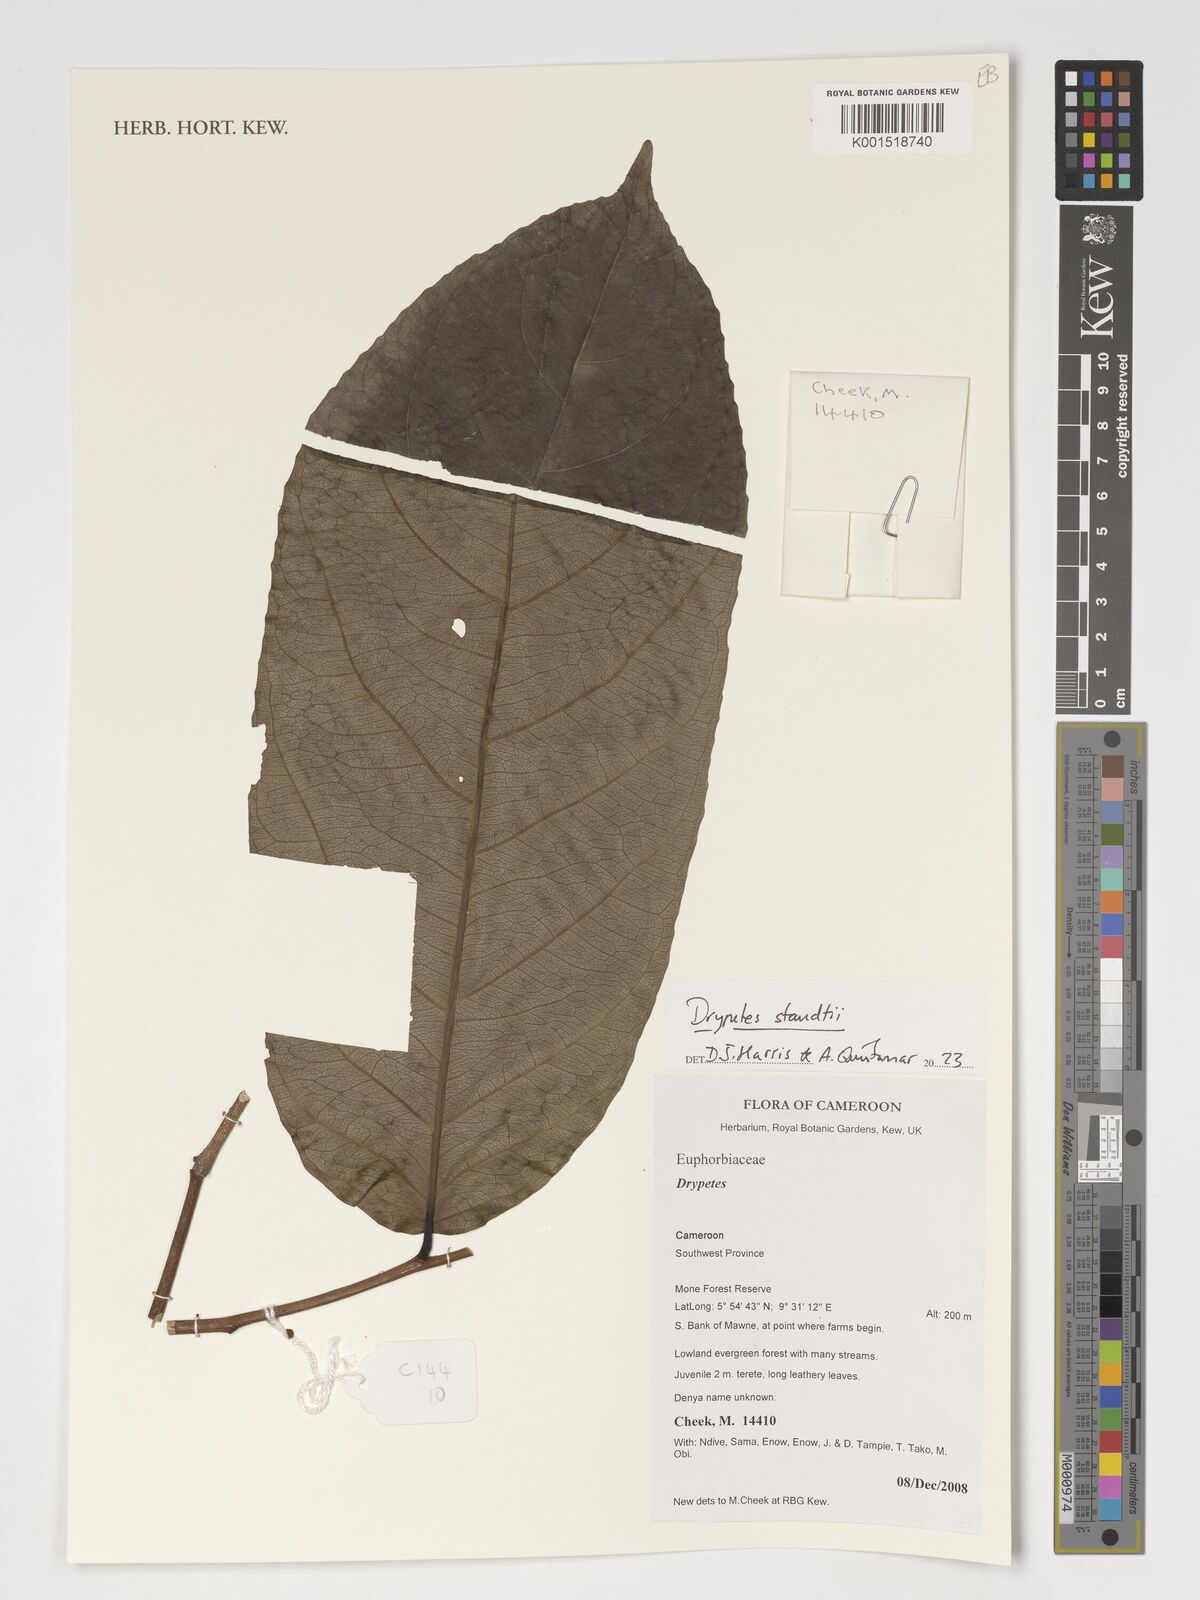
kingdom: Plantae
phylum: Tracheophyta
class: Magnoliopsida
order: Malpighiales
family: Putranjivaceae
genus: Drypetes
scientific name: Drypetes staudtii
